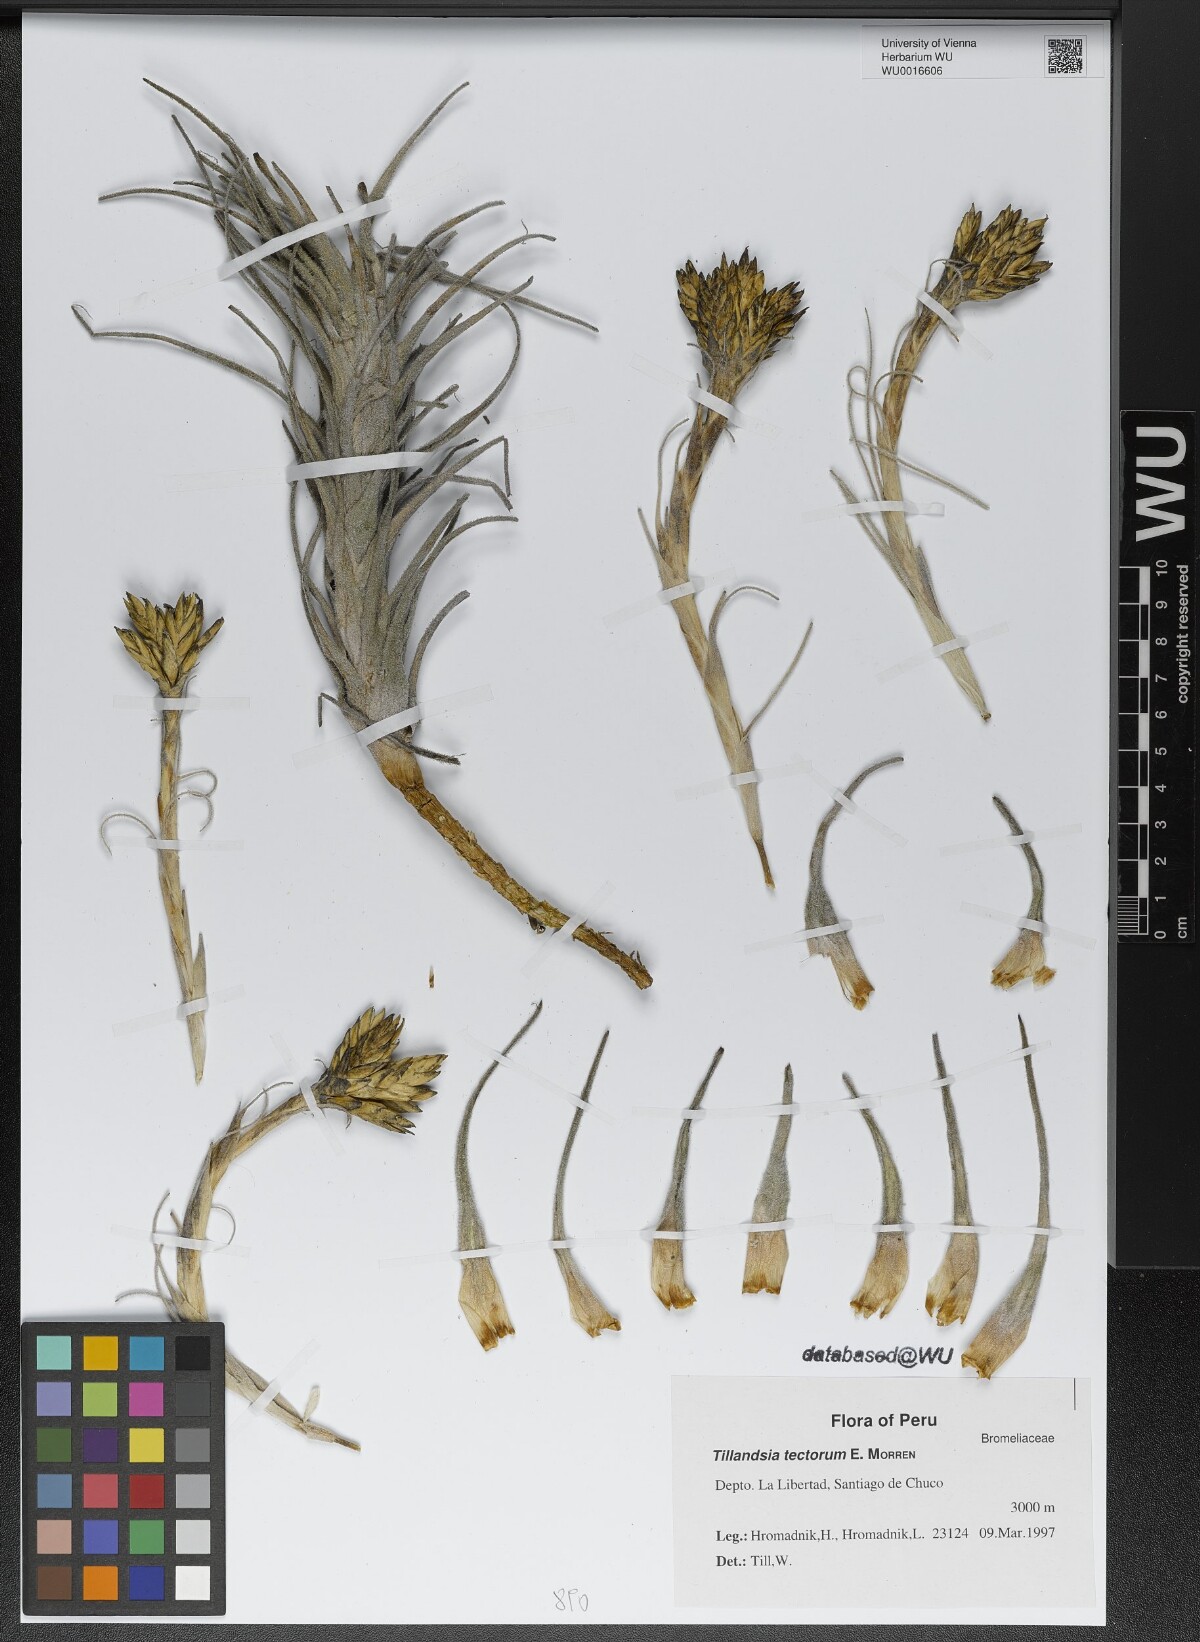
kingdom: Plantae
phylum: Tracheophyta
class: Liliopsida
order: Poales
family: Bromeliaceae
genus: Tillandsia
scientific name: Tillandsia tectorum
